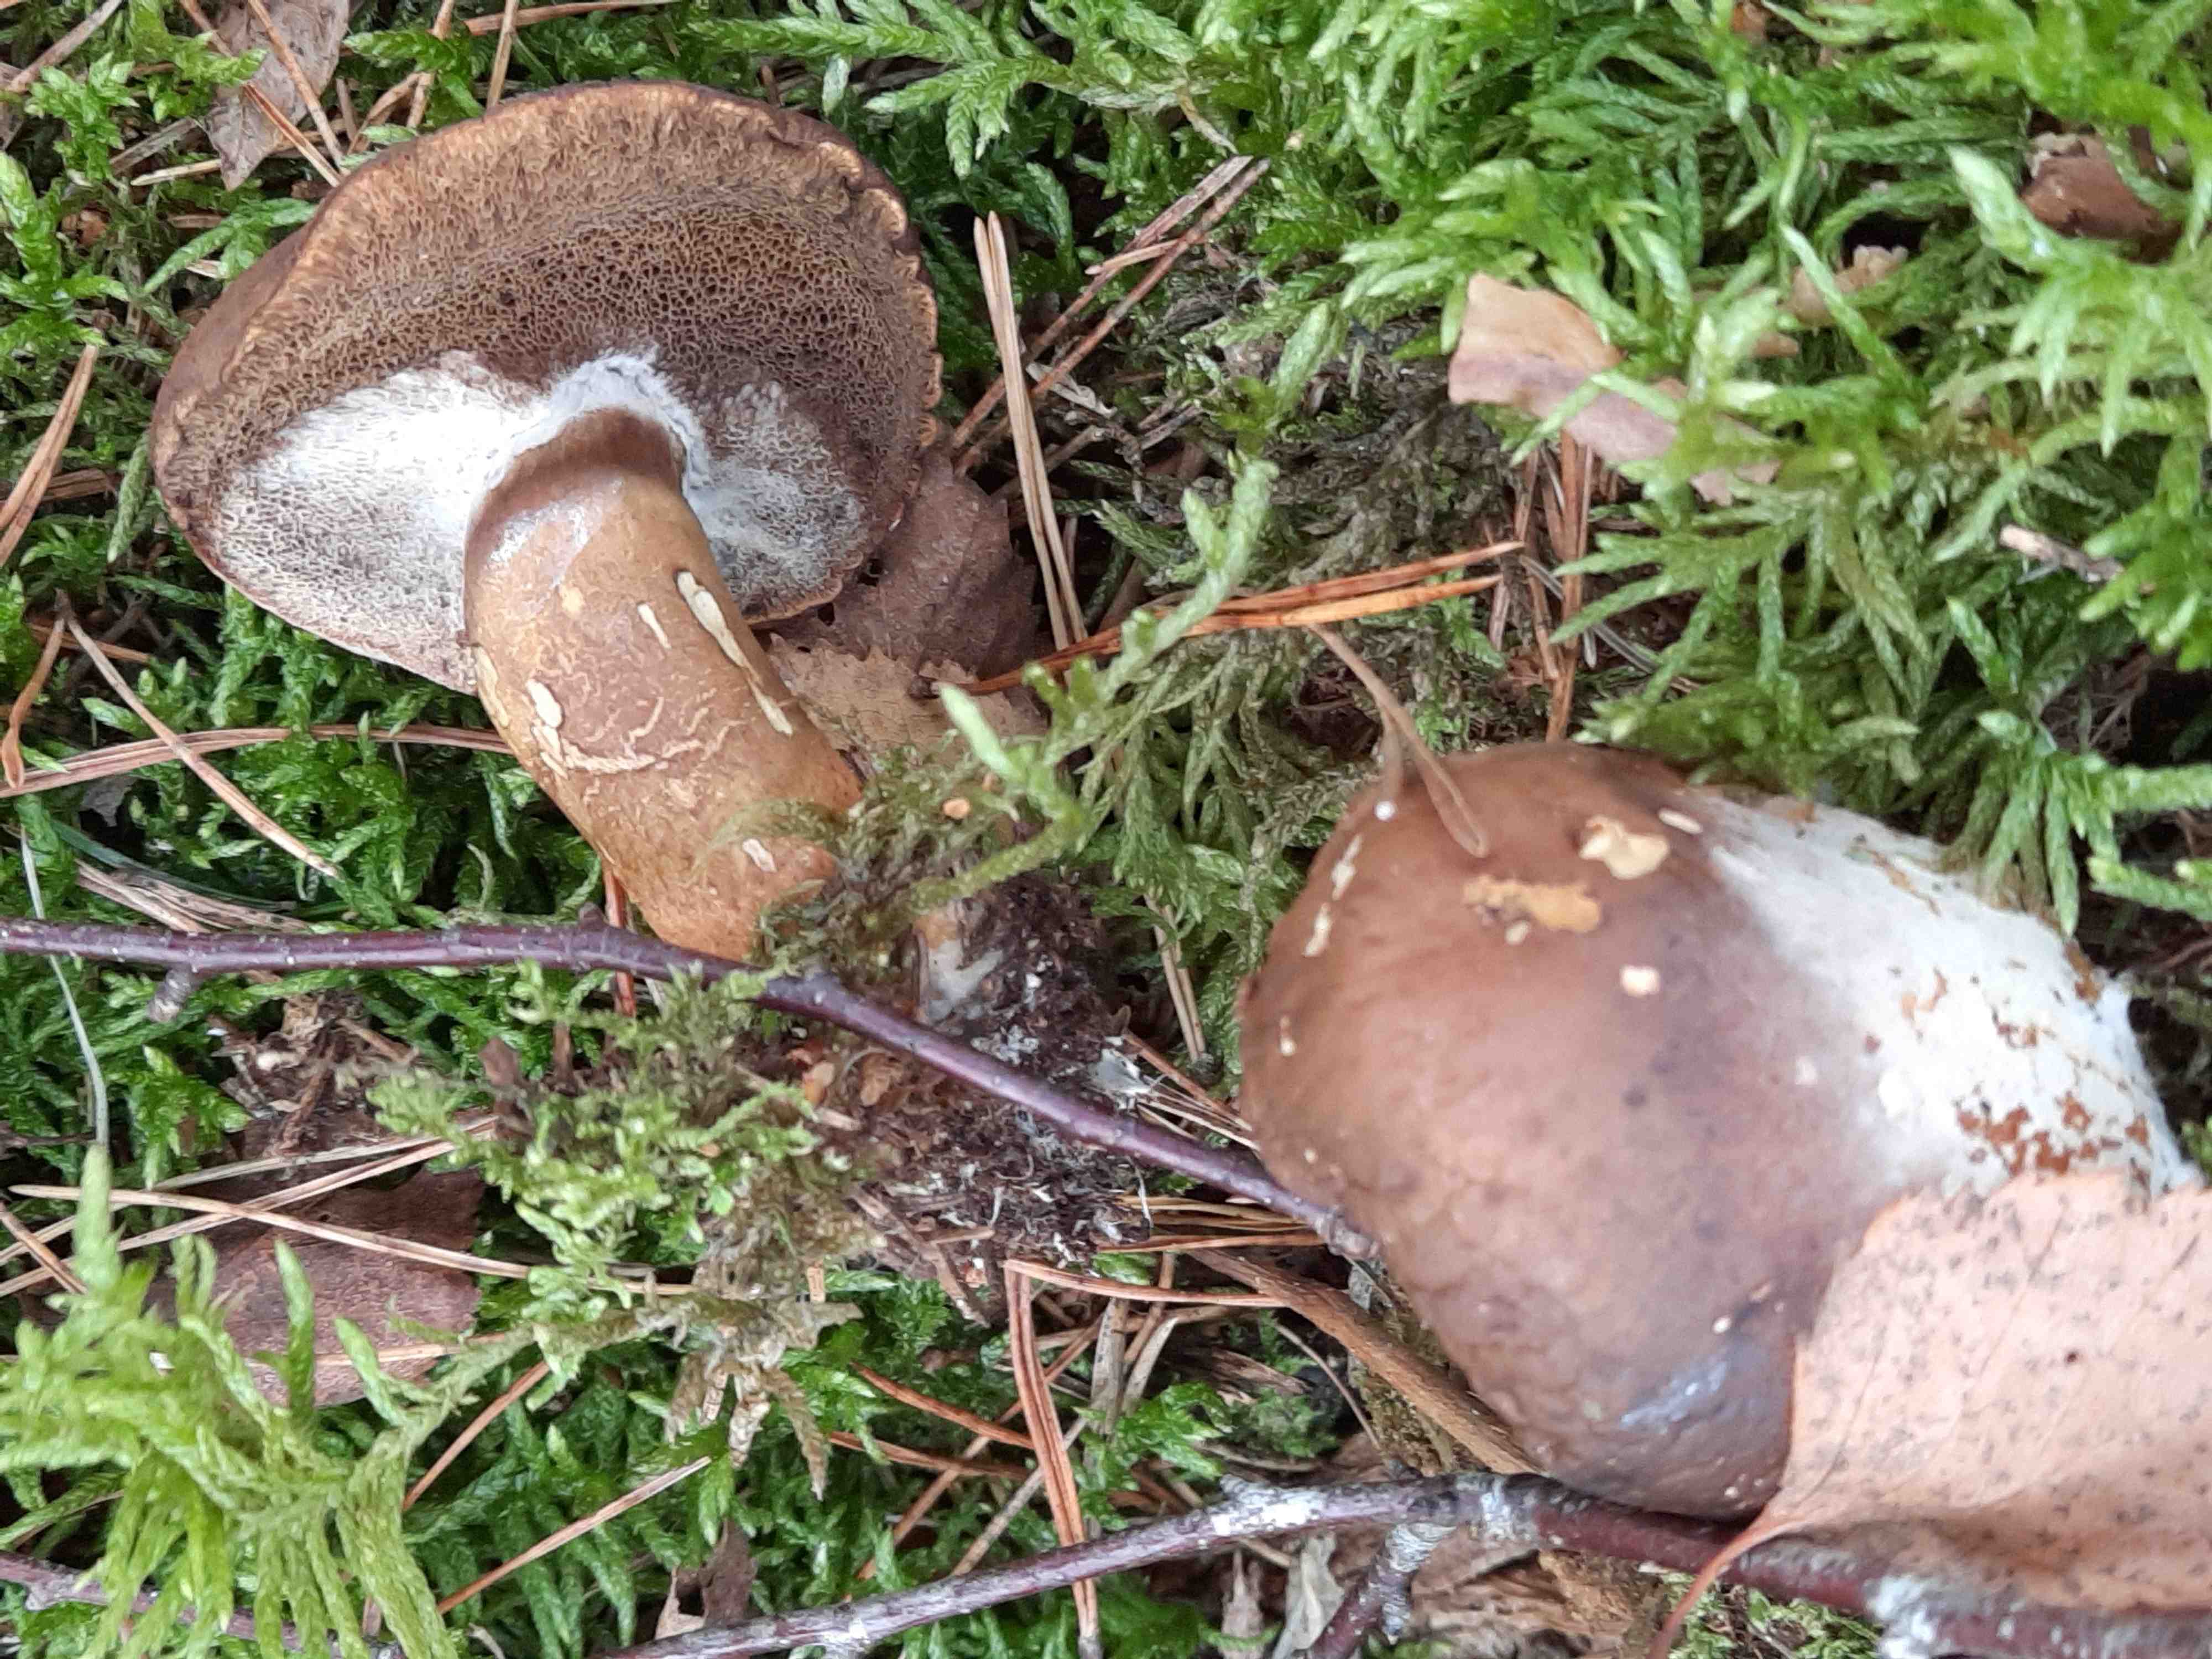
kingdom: Fungi
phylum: Basidiomycota
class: Agaricomycetes
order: Boletales
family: Boletaceae
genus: Imleria
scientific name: Imleria badia
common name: brunstokket rørhat
